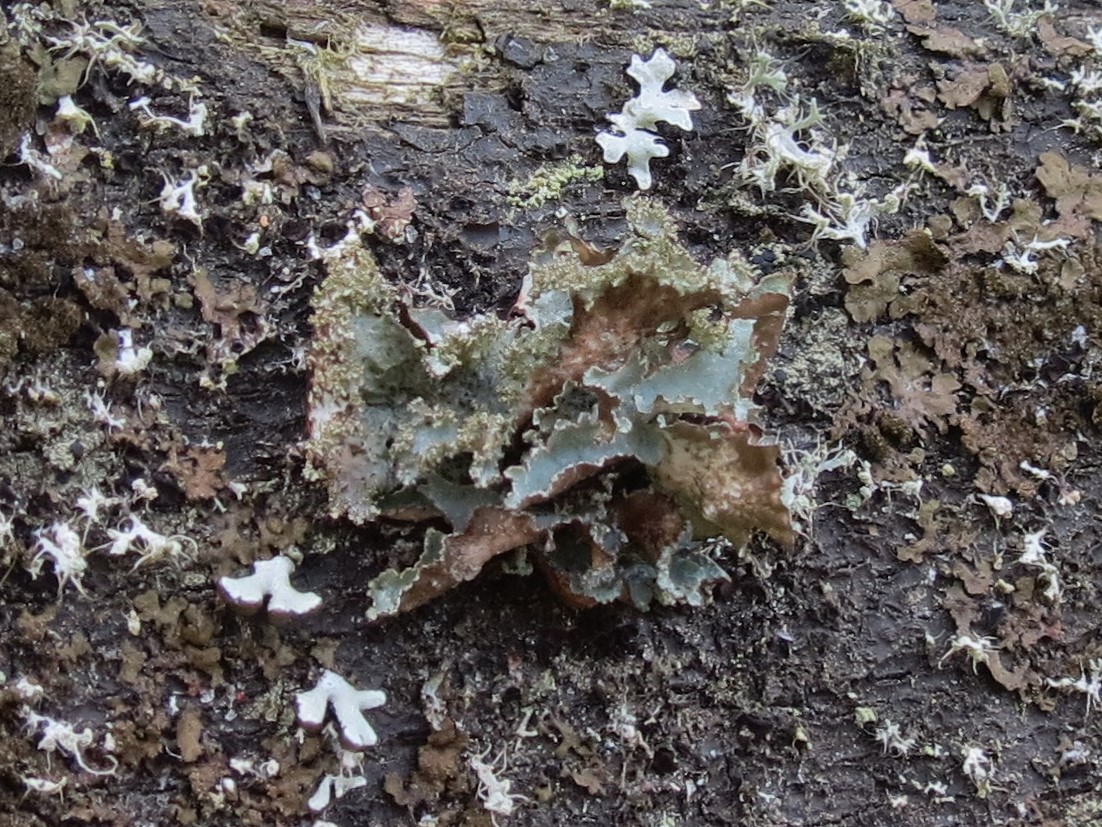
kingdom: Fungi
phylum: Ascomycota
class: Lecanoromycetes
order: Lecanorales
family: Parmeliaceae
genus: Platismatia
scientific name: Platismatia glauca
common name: blågrå papirlav
